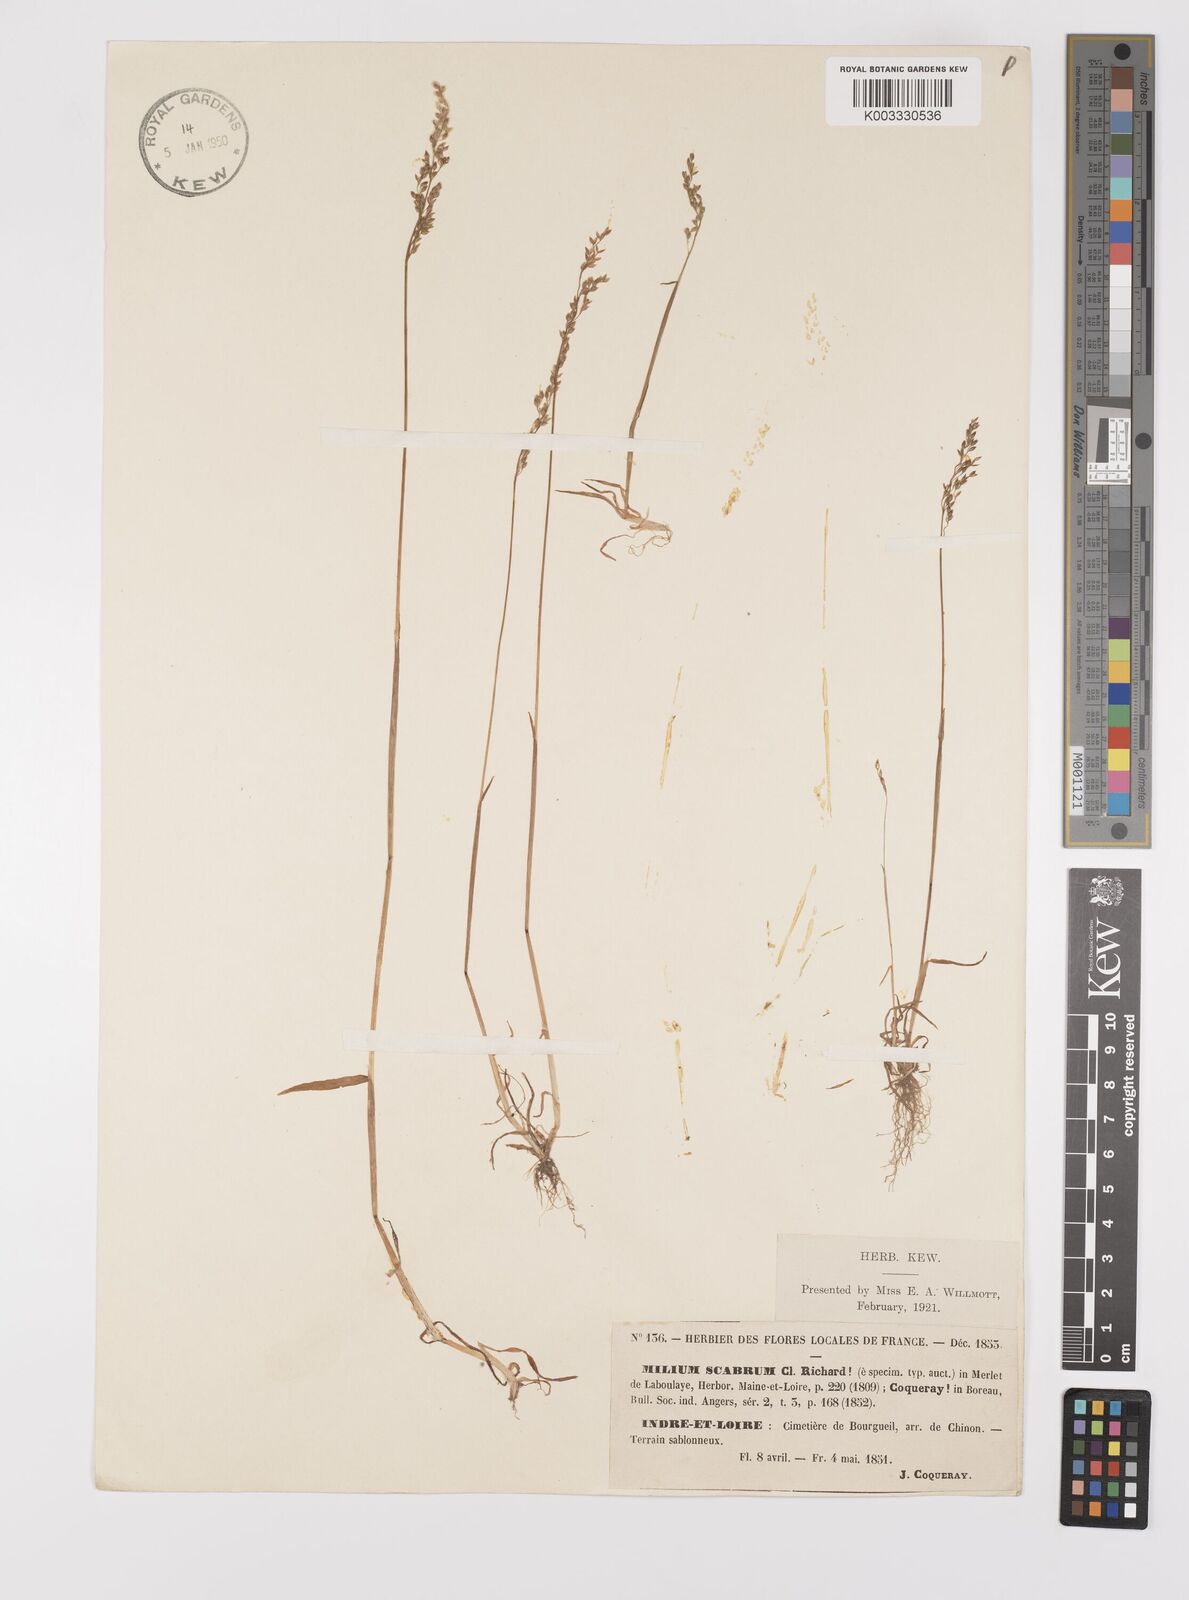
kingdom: Plantae
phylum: Tracheophyta
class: Liliopsida
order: Poales
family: Poaceae
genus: Milium
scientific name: Milium vernale
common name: Early millet
